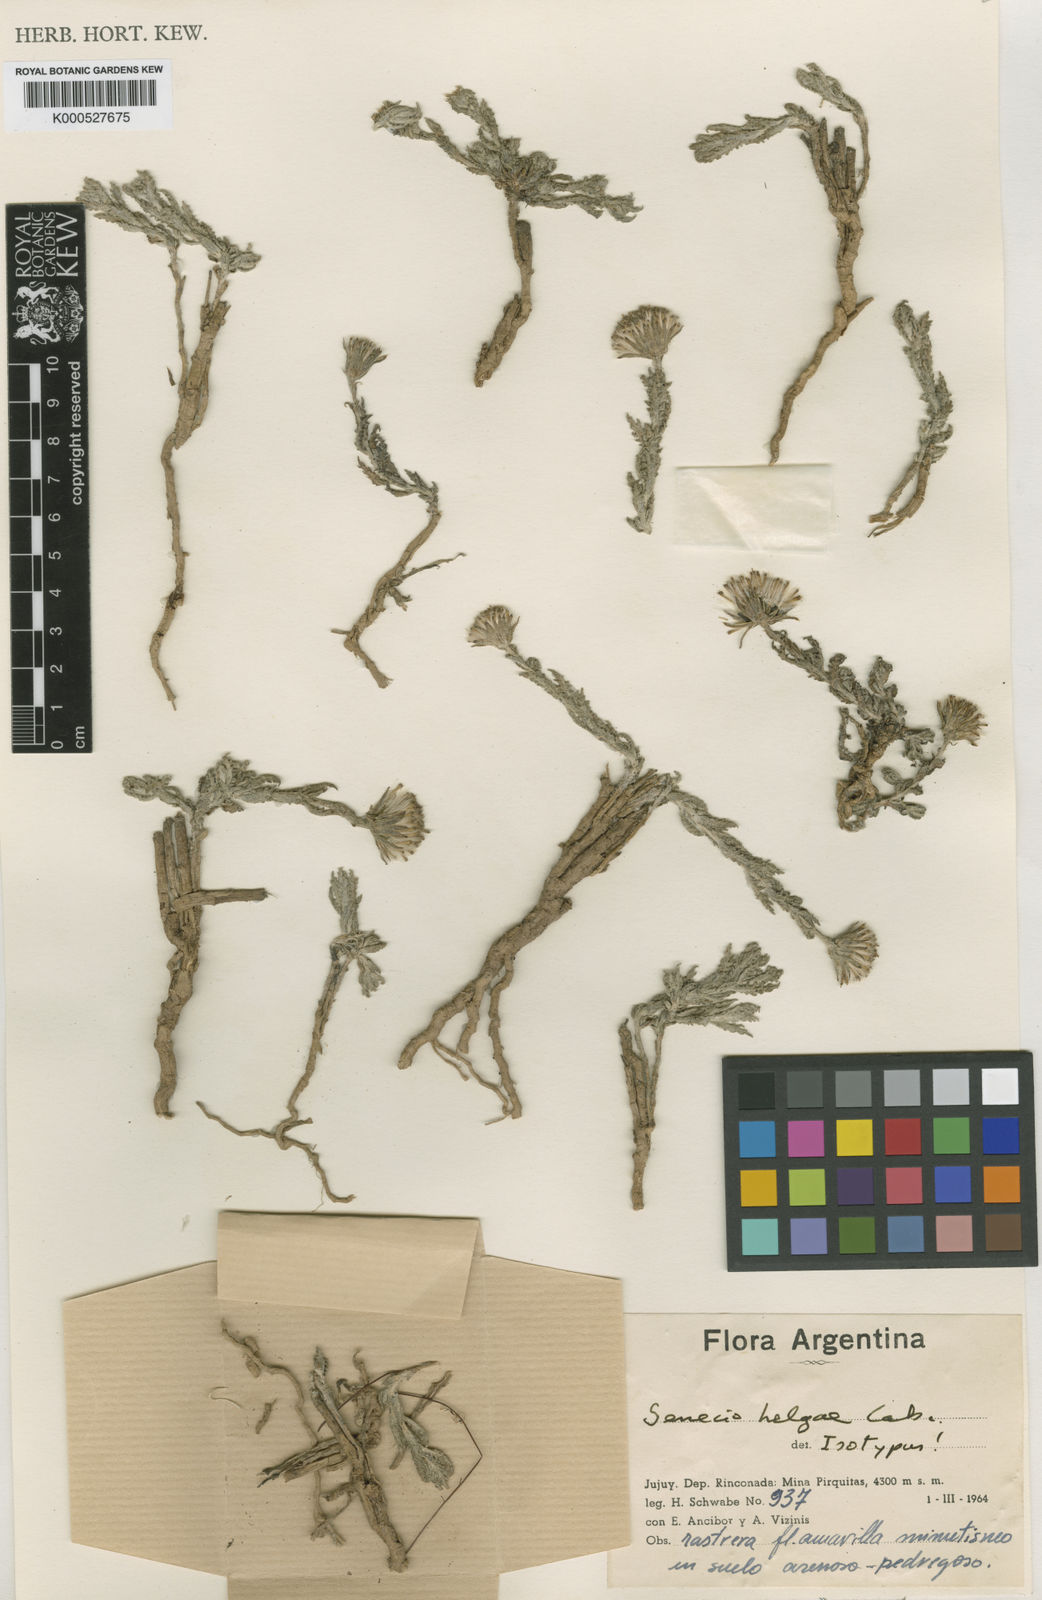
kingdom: Plantae
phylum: Tracheophyta
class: Magnoliopsida
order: Asterales
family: Asteraceae
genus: Senecio
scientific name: Senecio helgae
